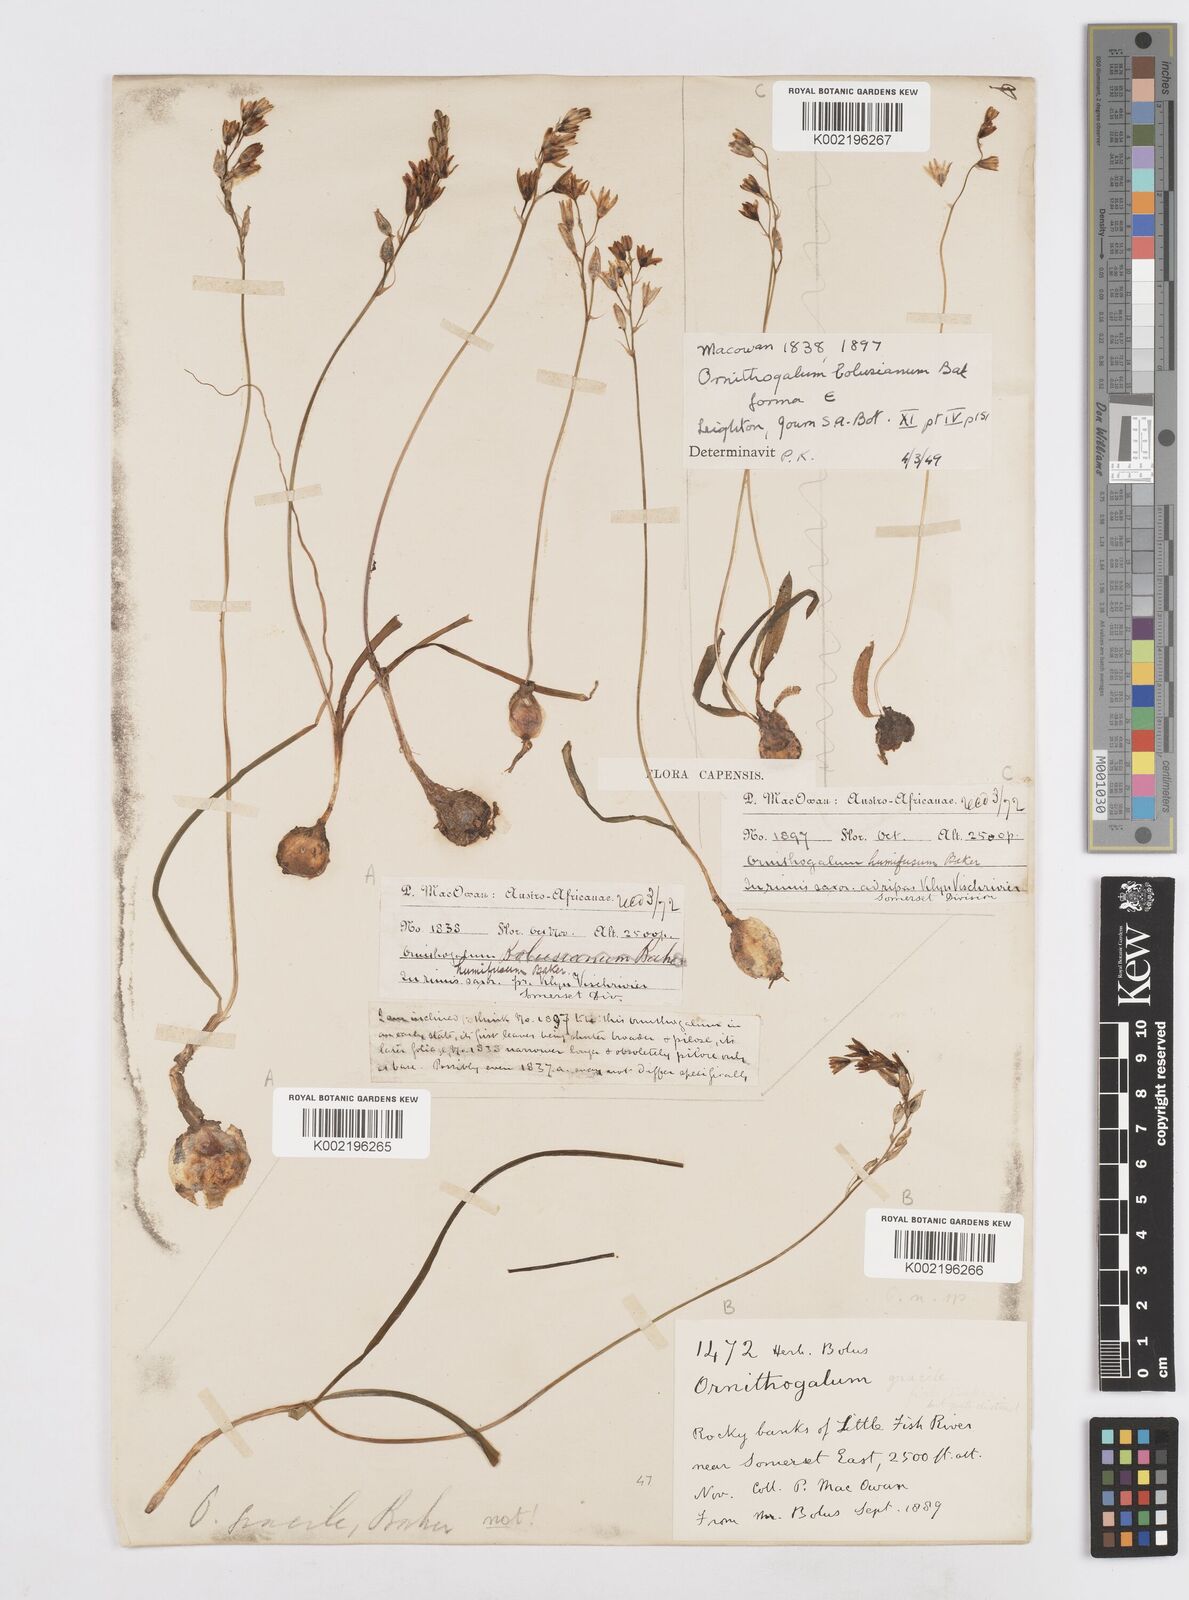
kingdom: Plantae
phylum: Tracheophyta
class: Liliopsida
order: Asparagales
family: Asparagaceae
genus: Ornithogalum
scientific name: Ornithogalum graminifolium
